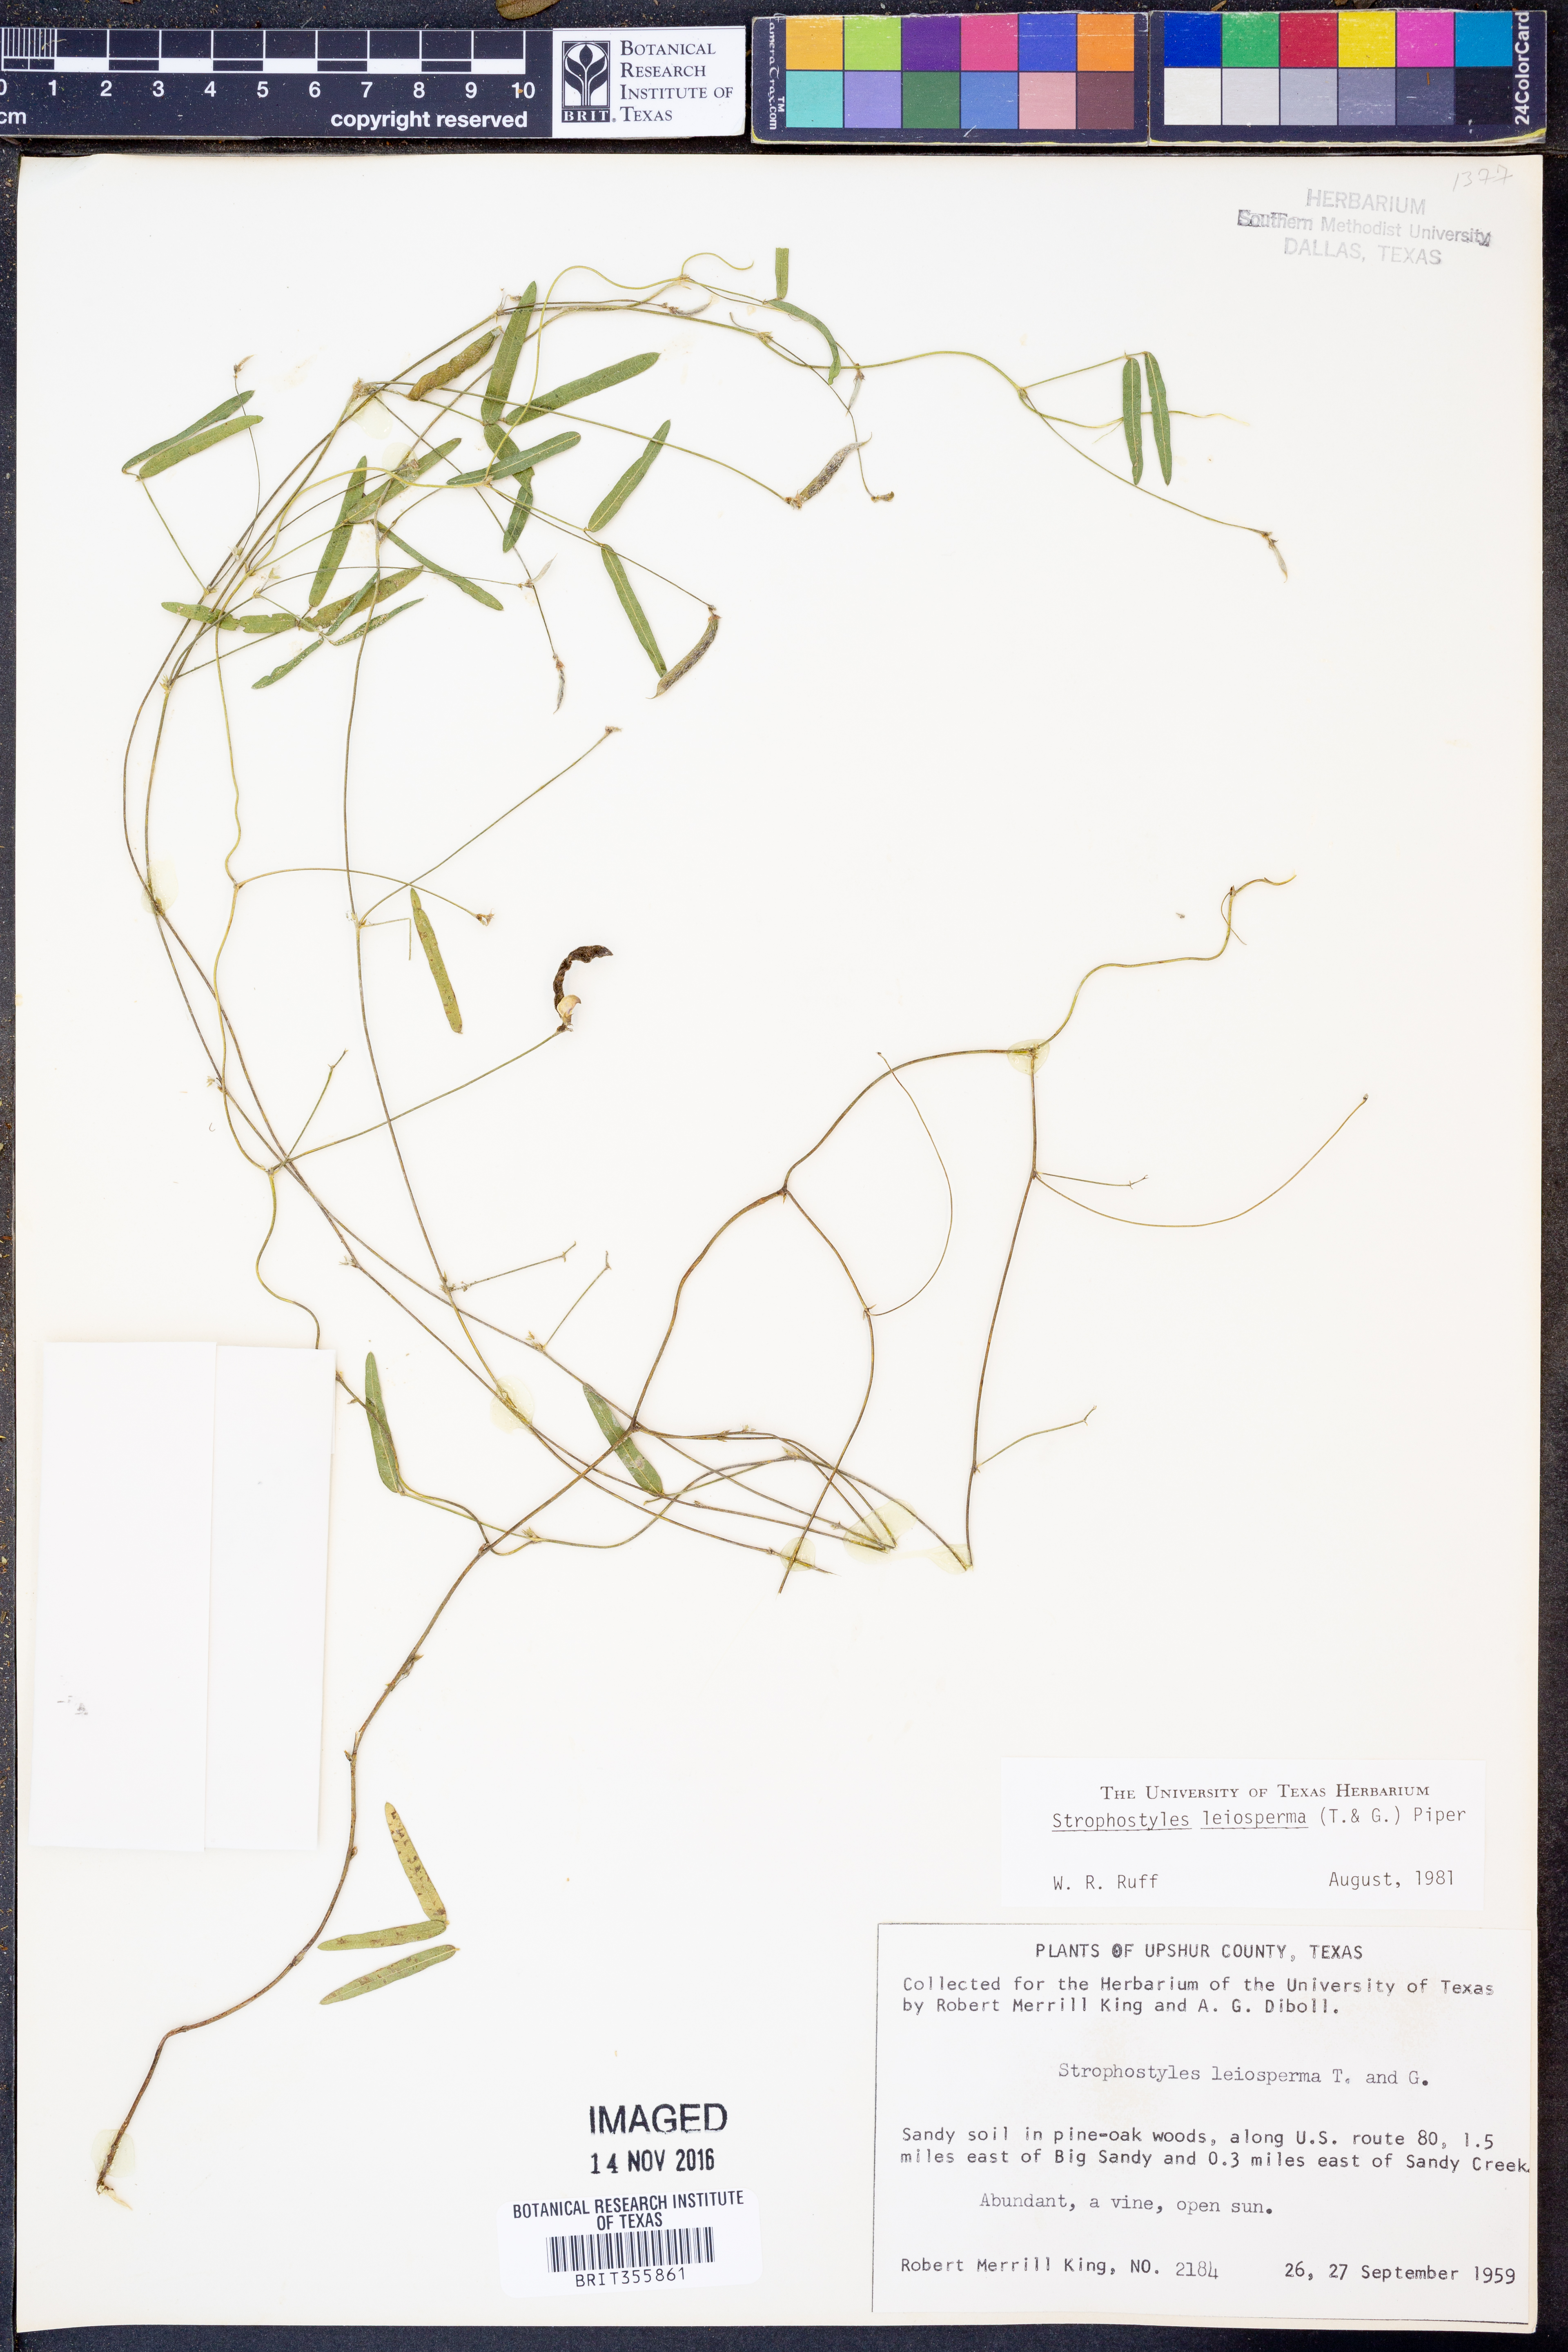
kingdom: Plantae
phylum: Tracheophyta
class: Magnoliopsida
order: Fabales
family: Fabaceae
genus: Strophostyles
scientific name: Strophostyles leiosperma
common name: Smooth-seed wild bean
